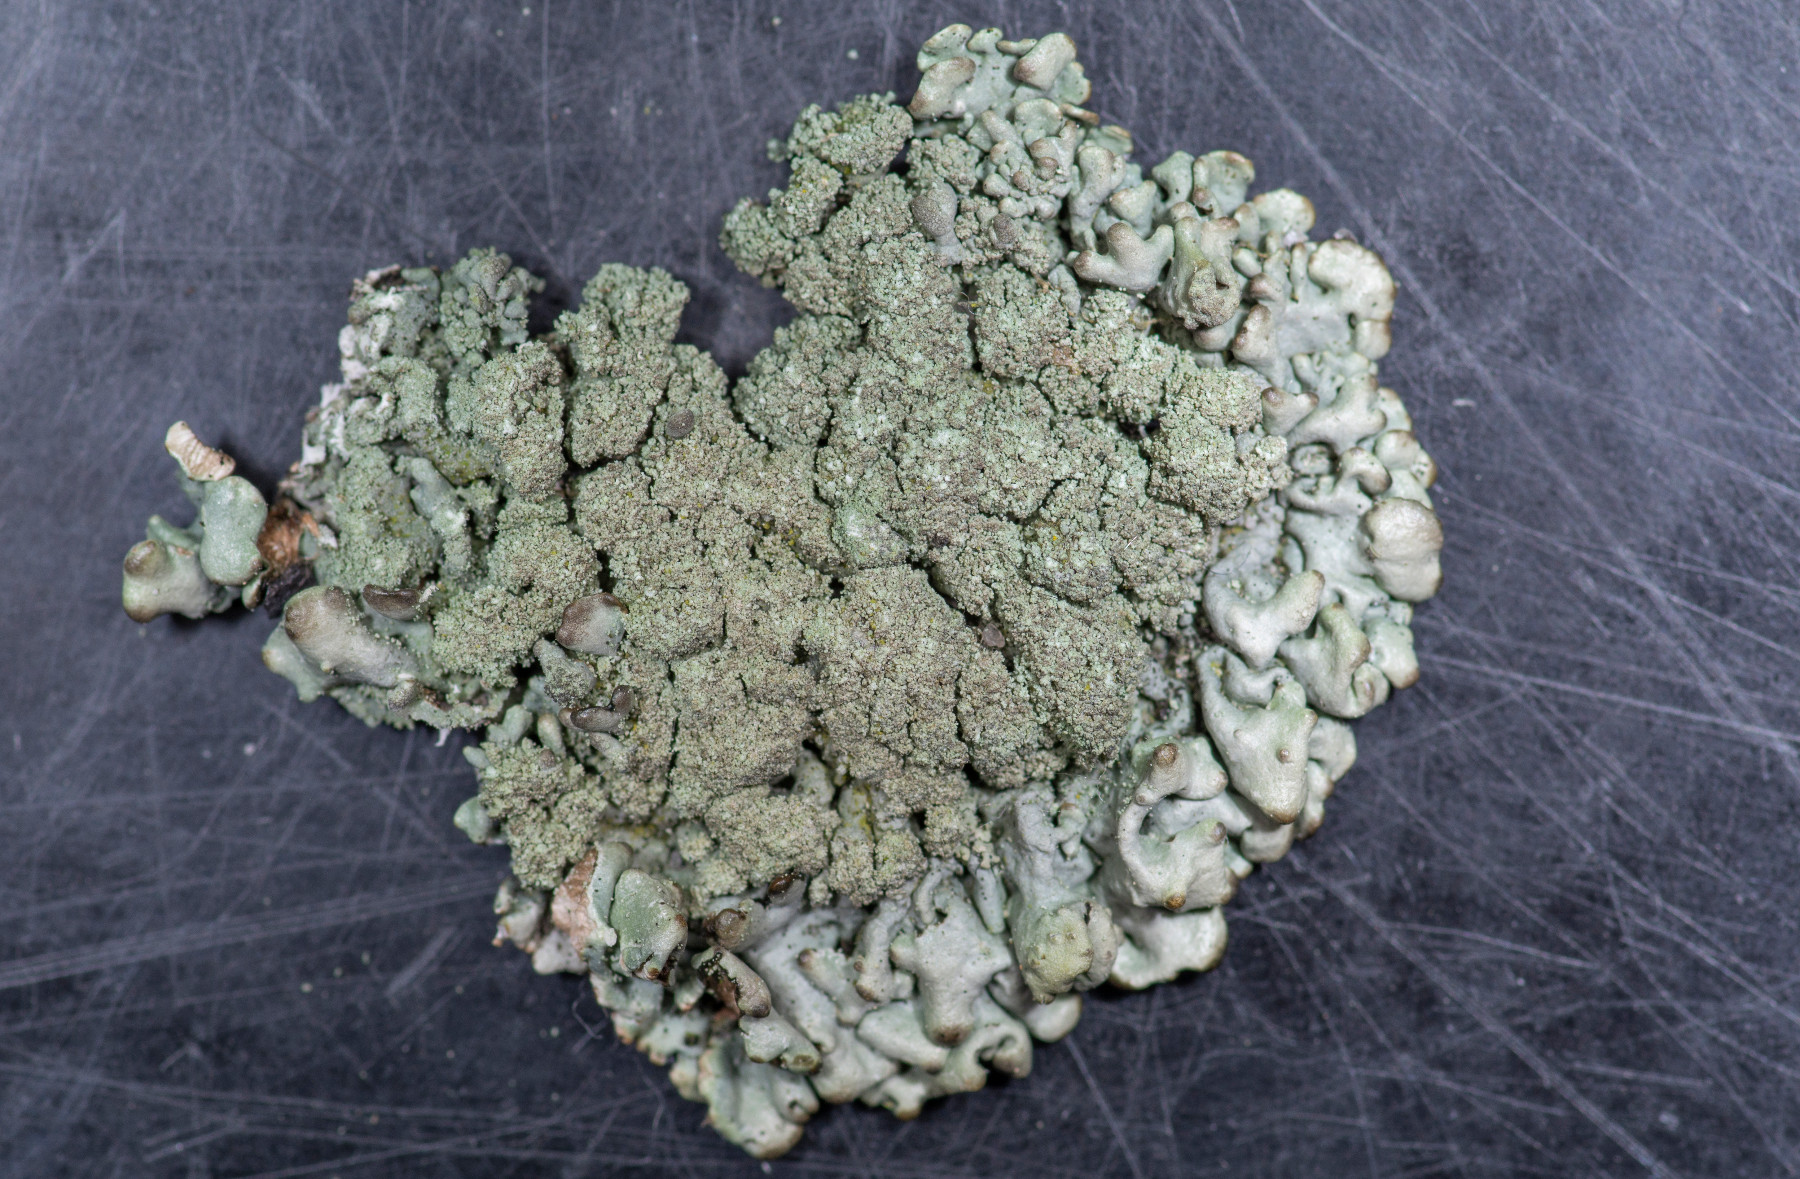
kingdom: Fungi
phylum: Ascomycota
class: Lecanoromycetes
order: Lecanorales
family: Parmeliaceae
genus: Hypogymnia
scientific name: Hypogymnia tubulosa
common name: finger-kvistlav
